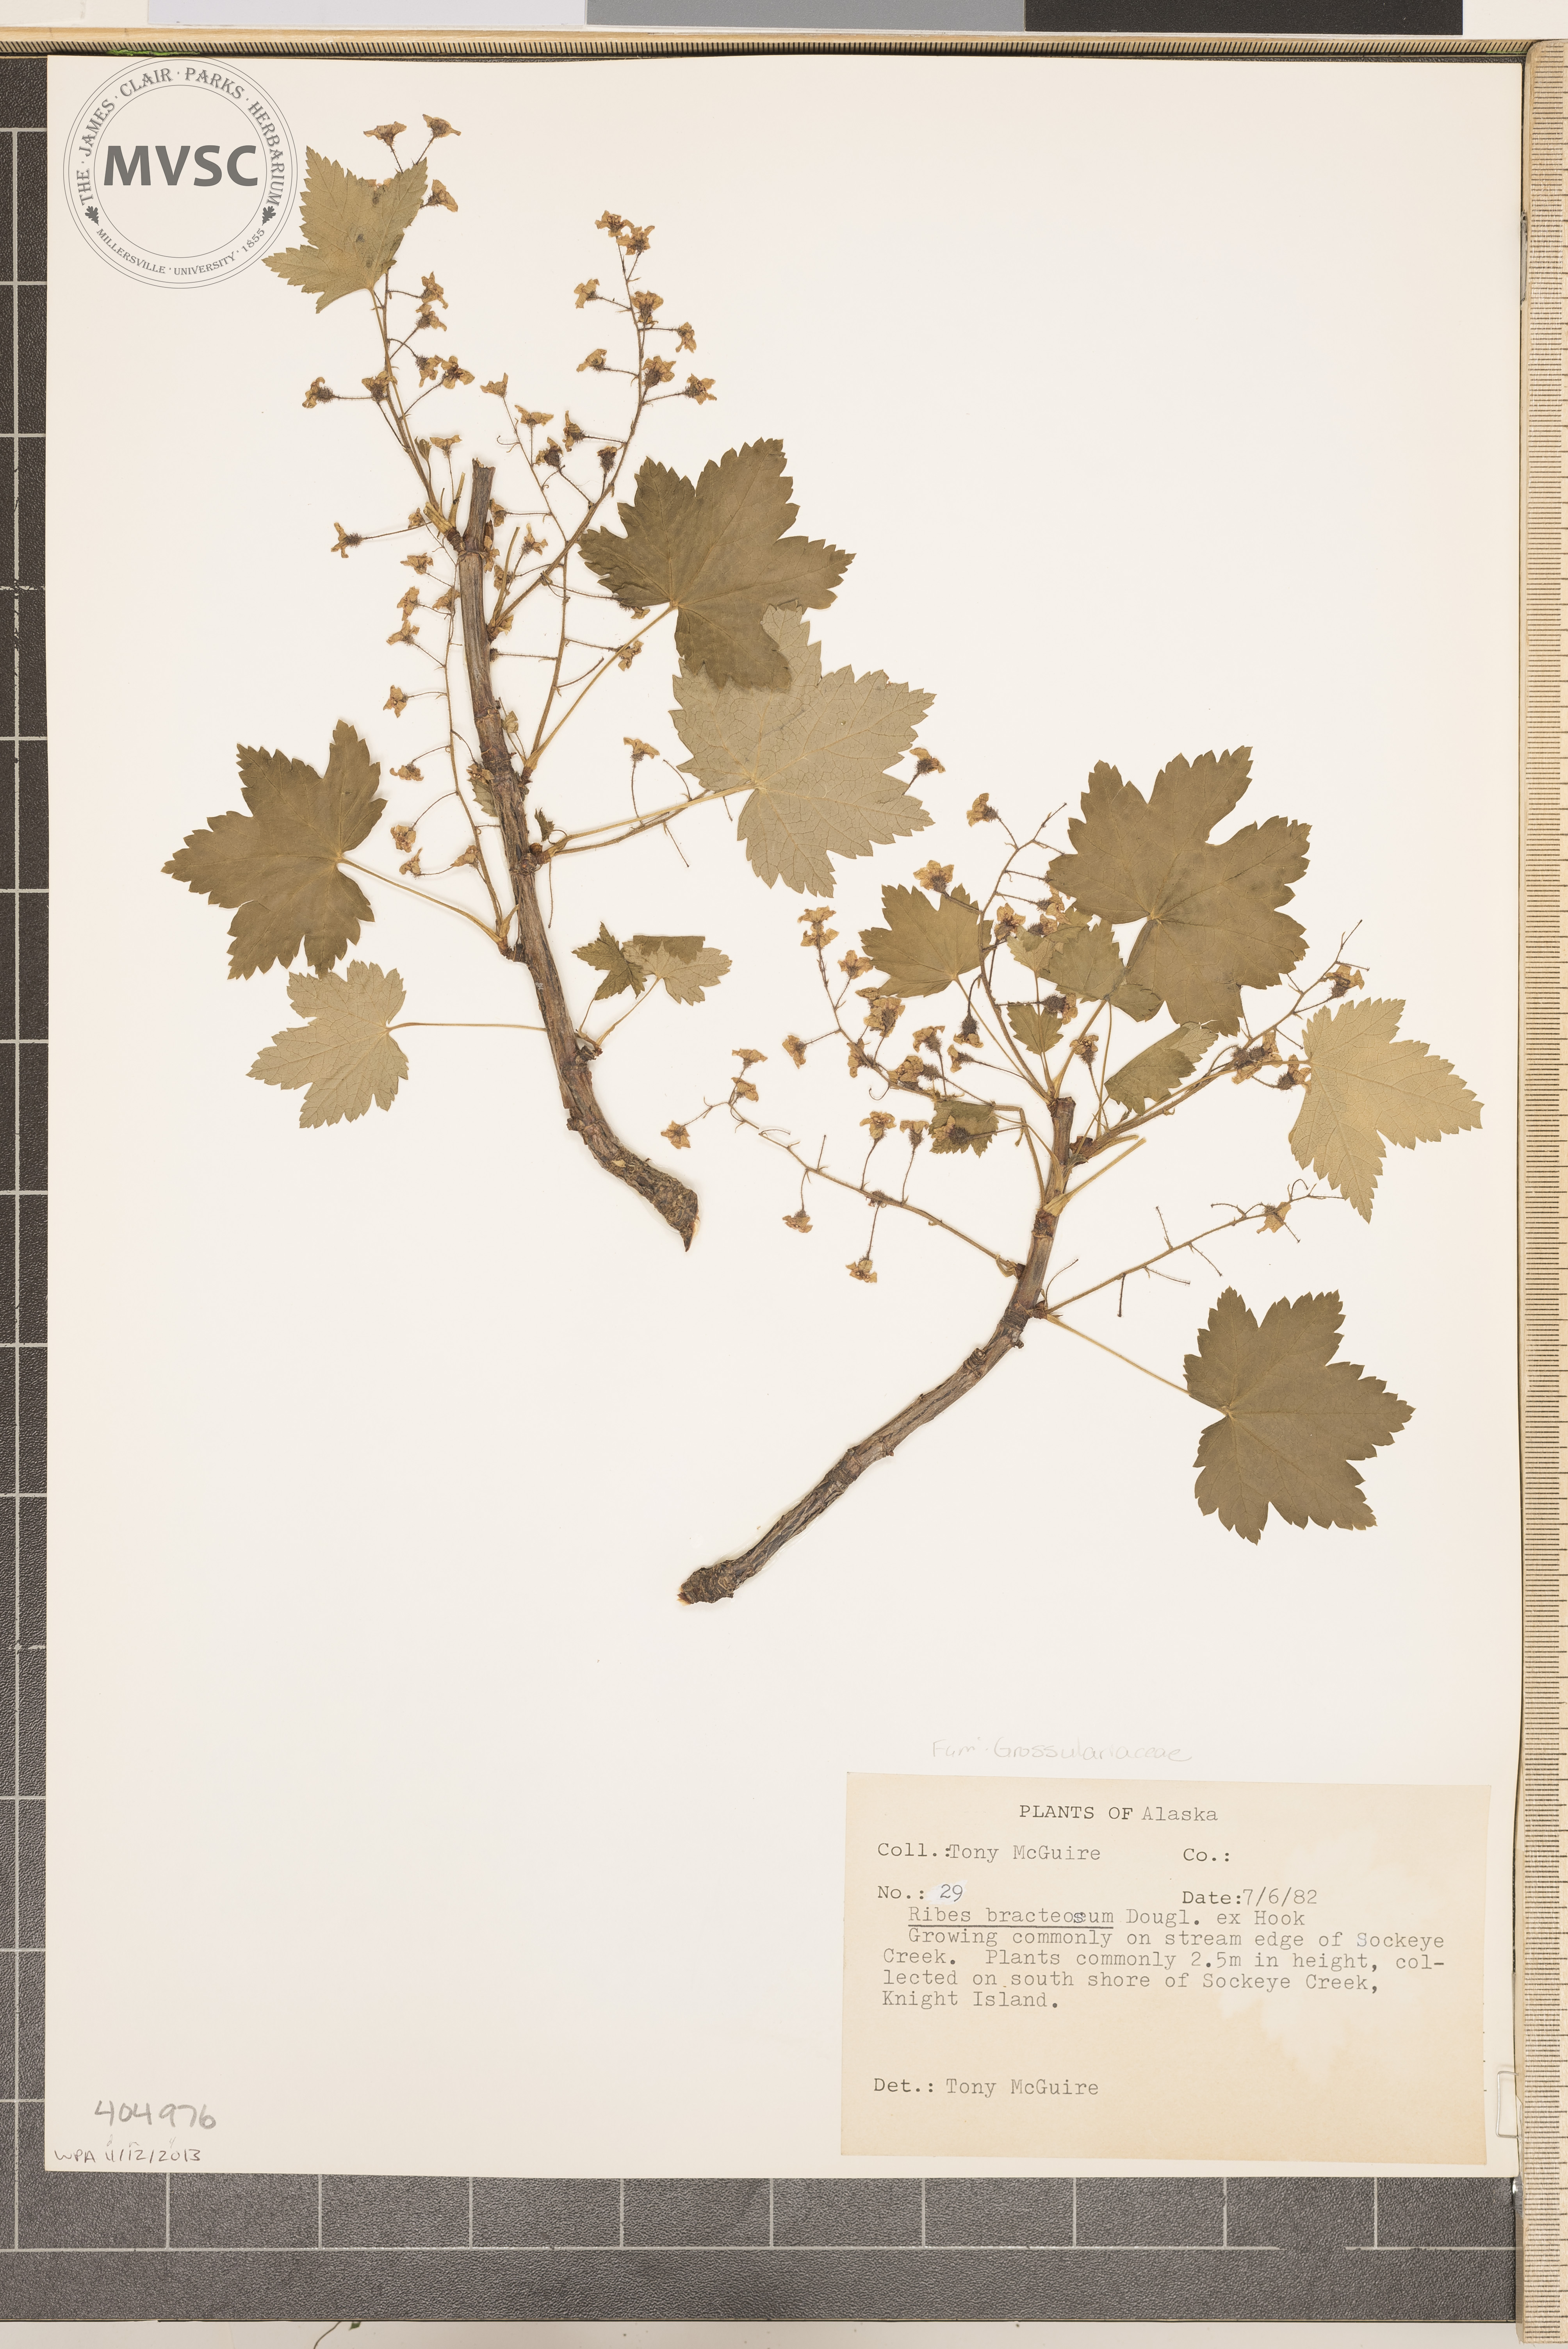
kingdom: Plantae
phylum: Tracheophyta
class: Magnoliopsida
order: Saxifragales
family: Grossulariaceae
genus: Ribes
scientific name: Ribes bracteosum
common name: California black currant
